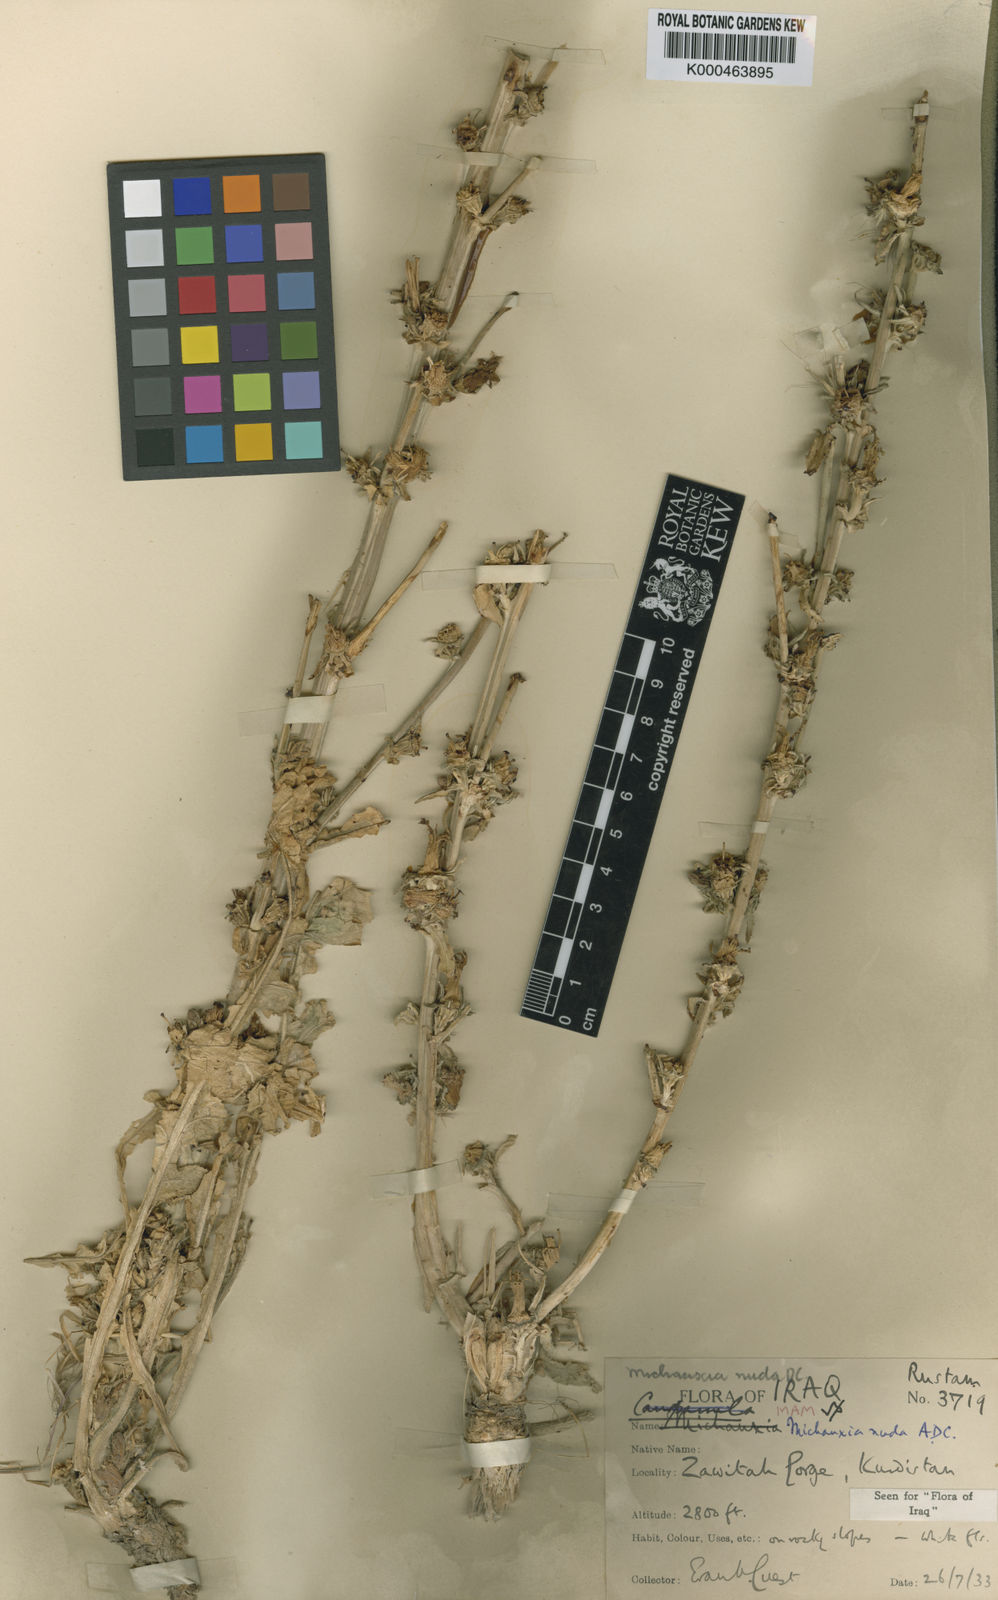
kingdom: Plantae
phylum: Tracheophyta
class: Magnoliopsida
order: Asterales
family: Campanulaceae
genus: Michauxia
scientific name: Michauxia nuda
